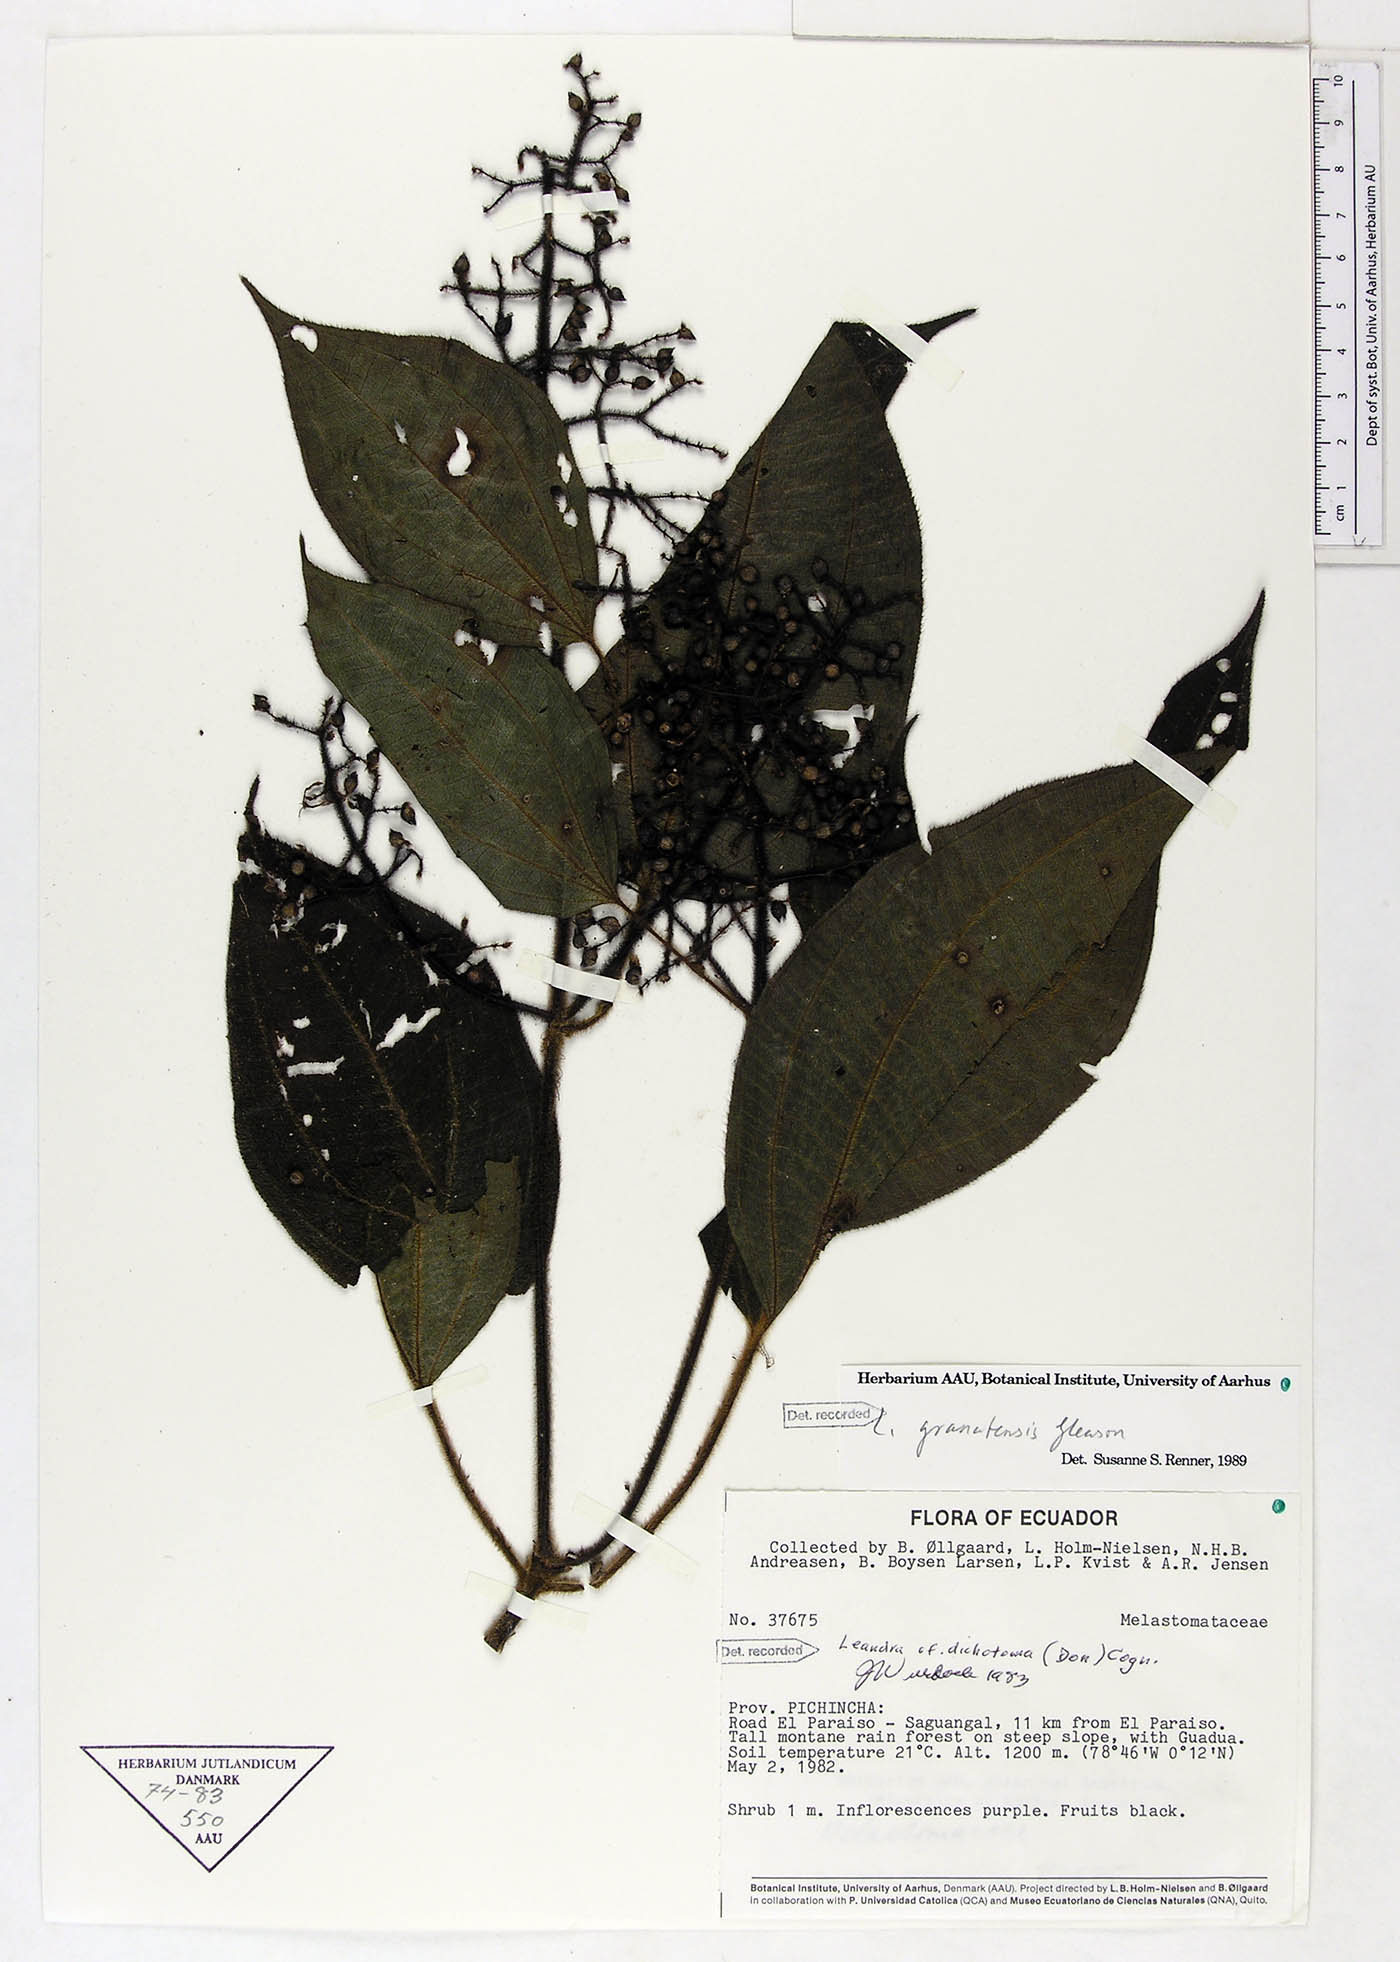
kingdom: Plantae
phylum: Tracheophyta
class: Magnoliopsida
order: Myrtales
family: Melastomataceae
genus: Miconia
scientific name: Miconia granatensis
